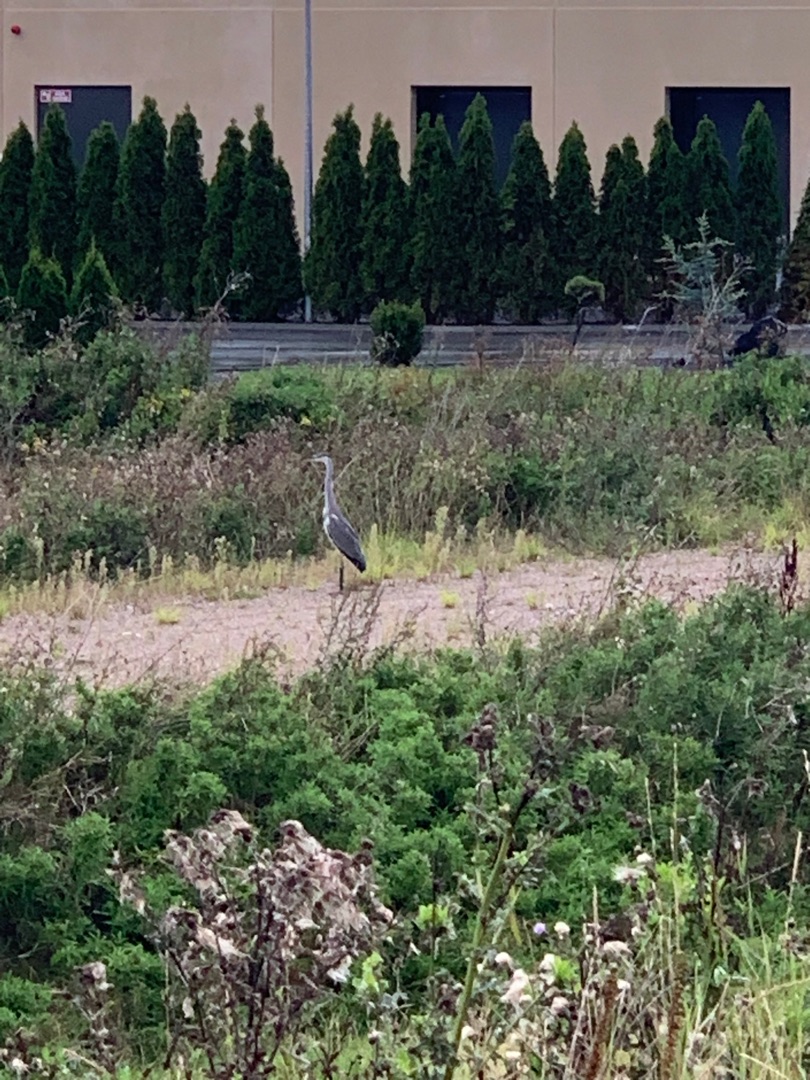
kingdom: Animalia
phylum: Chordata
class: Aves
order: Pelecaniformes
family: Ardeidae
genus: Ardea
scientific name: Ardea cinerea
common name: Fiskehejre
